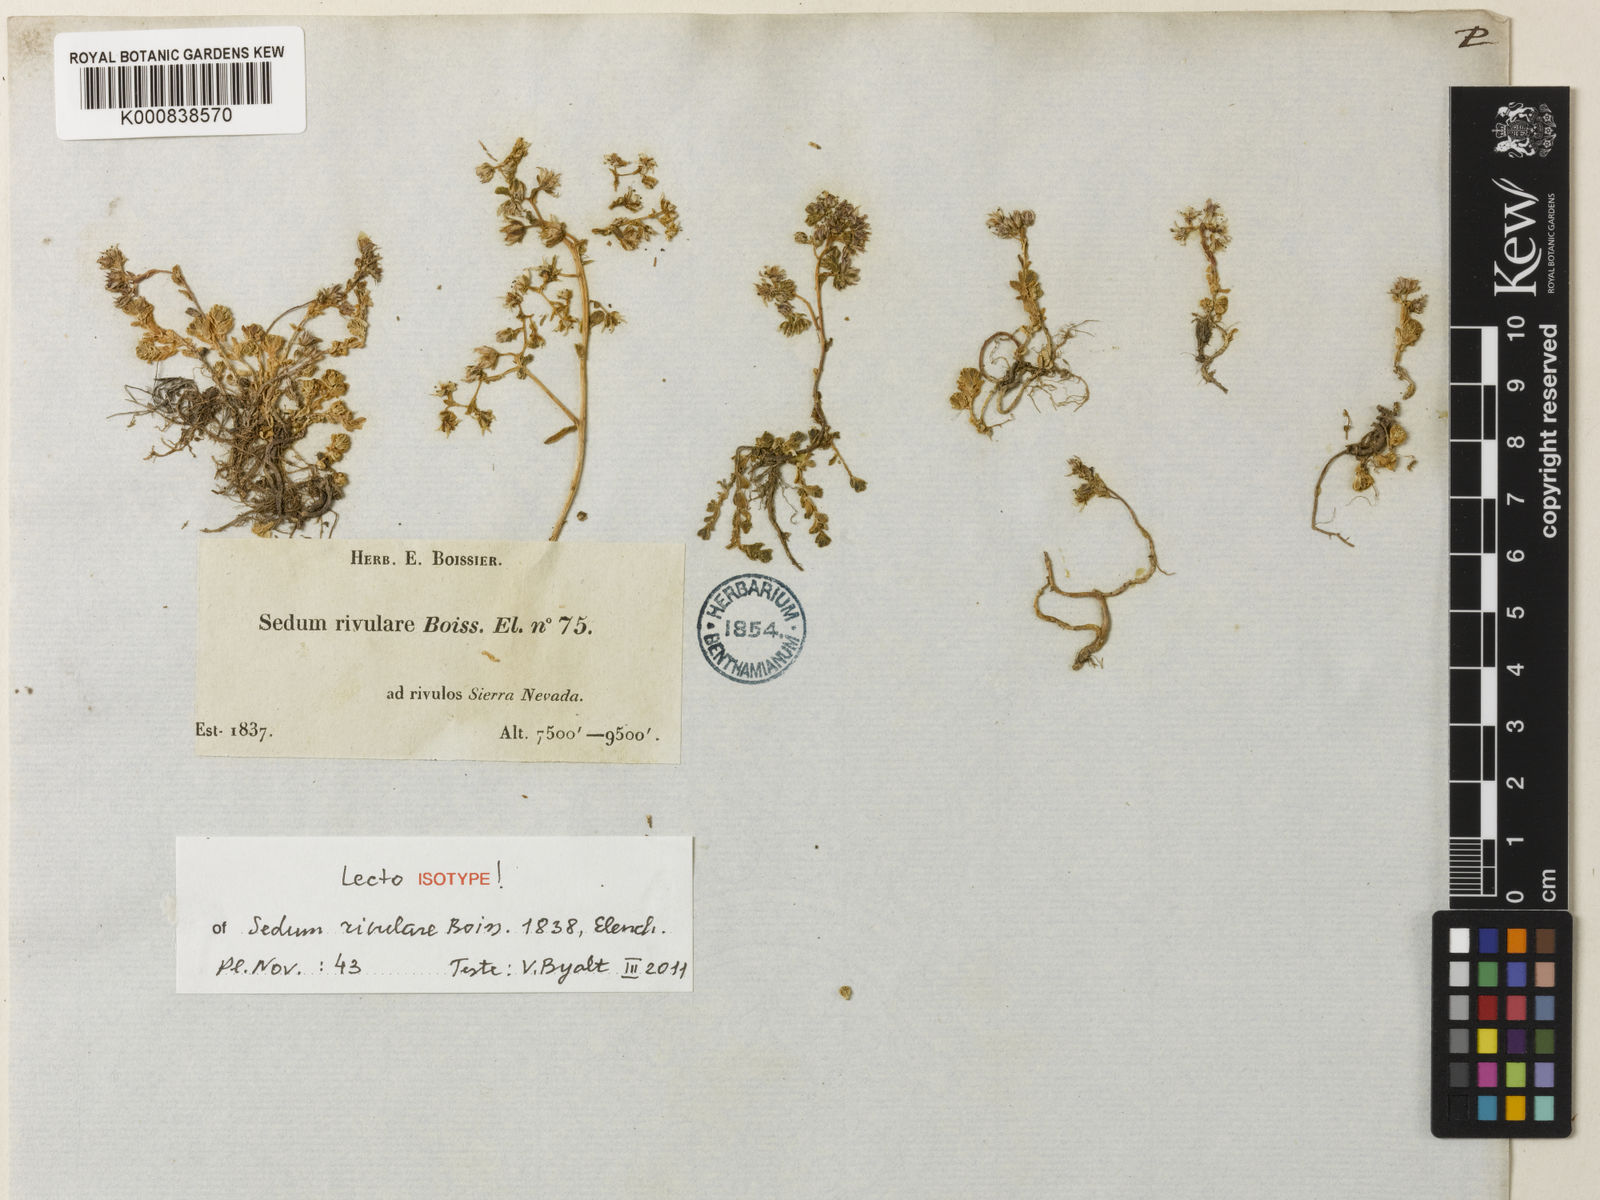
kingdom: Plantae
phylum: Tracheophyta
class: Magnoliopsida
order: Saxifragales
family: Crassulaceae
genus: Sedum
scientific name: Sedum anglicum
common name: English stonecrop
